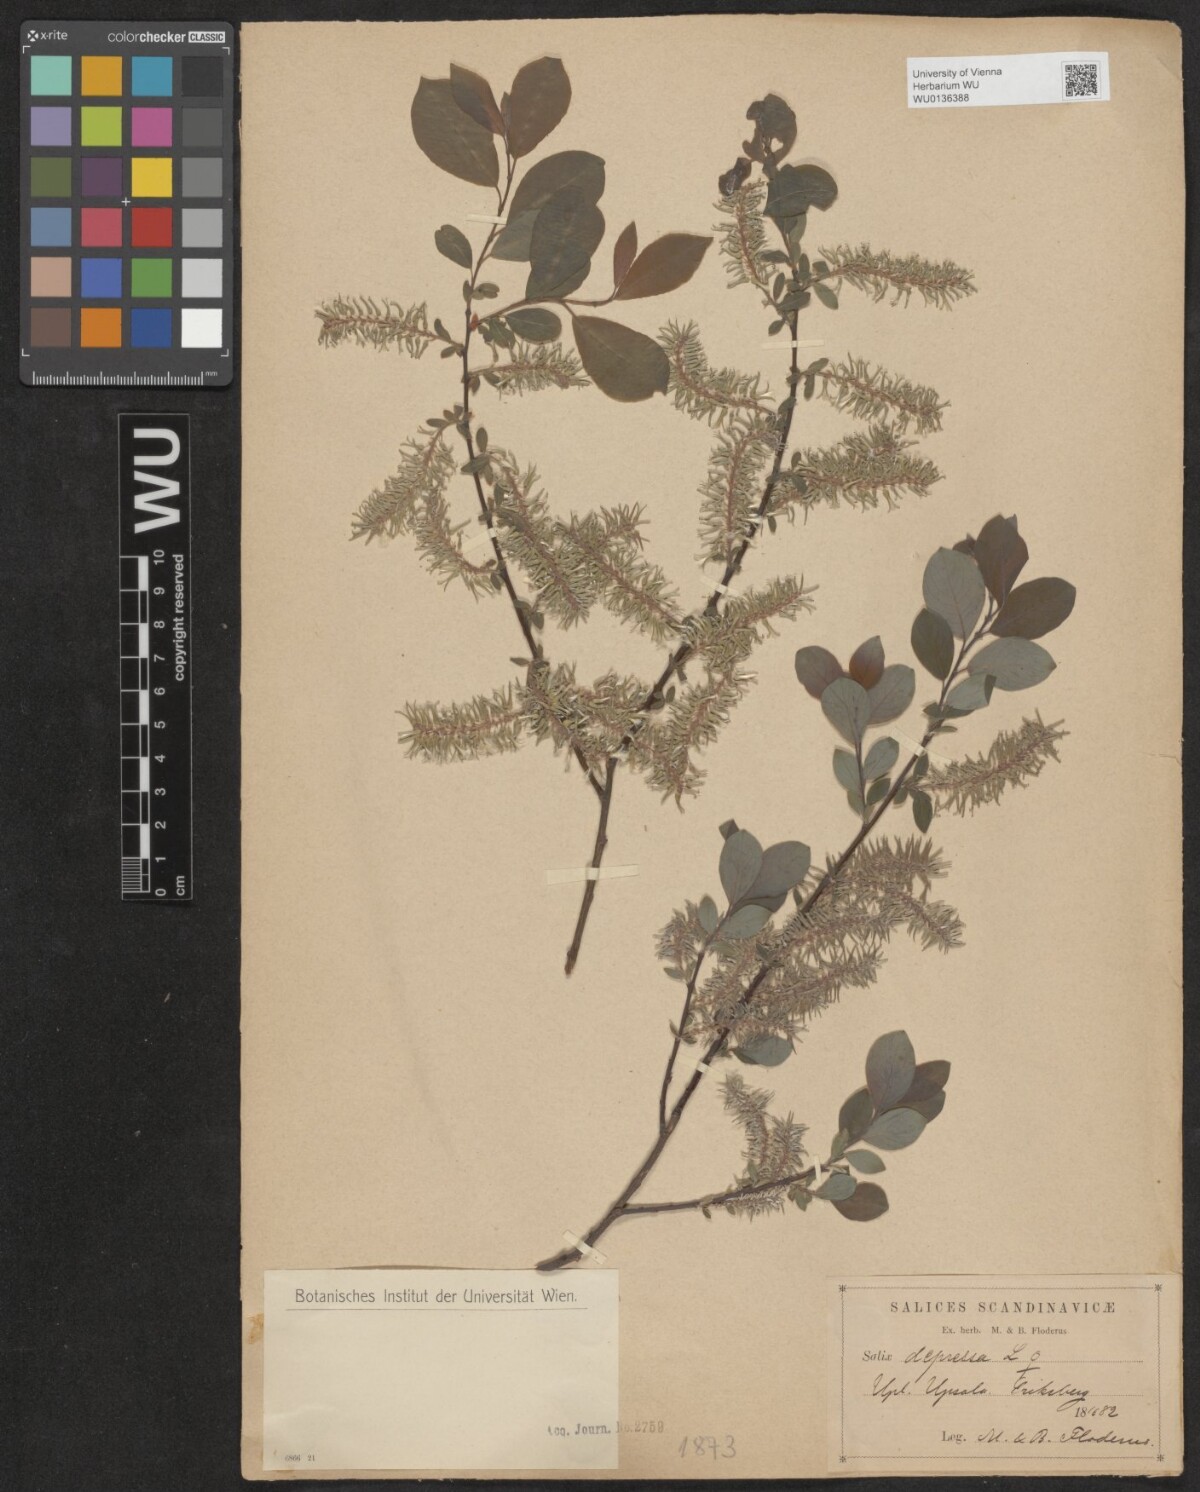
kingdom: Plantae
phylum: Tracheophyta
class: Magnoliopsida
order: Malpighiales
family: Salicaceae
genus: Salix
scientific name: Salix lanata
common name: Woolly willow
